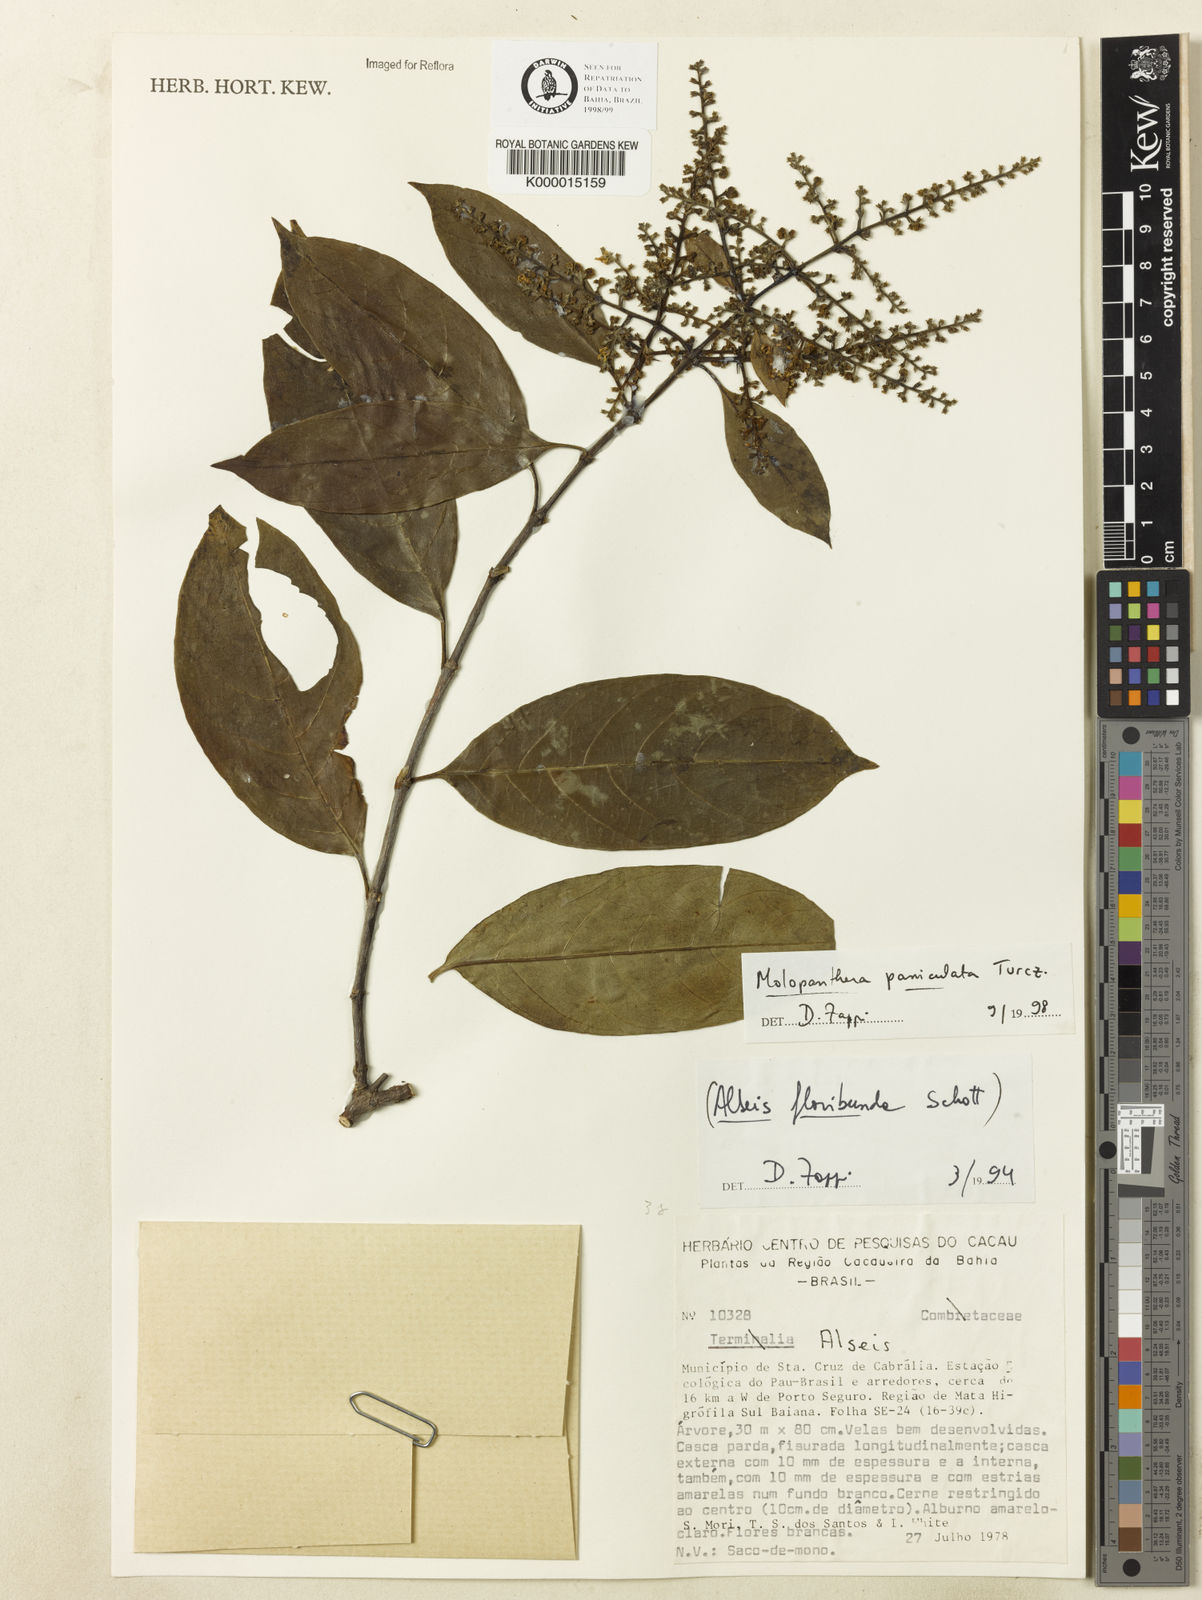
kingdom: Plantae
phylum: Tracheophyta
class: Magnoliopsida
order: Gentianales
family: Rubiaceae
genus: Molopanthera
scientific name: Molopanthera paniculata
